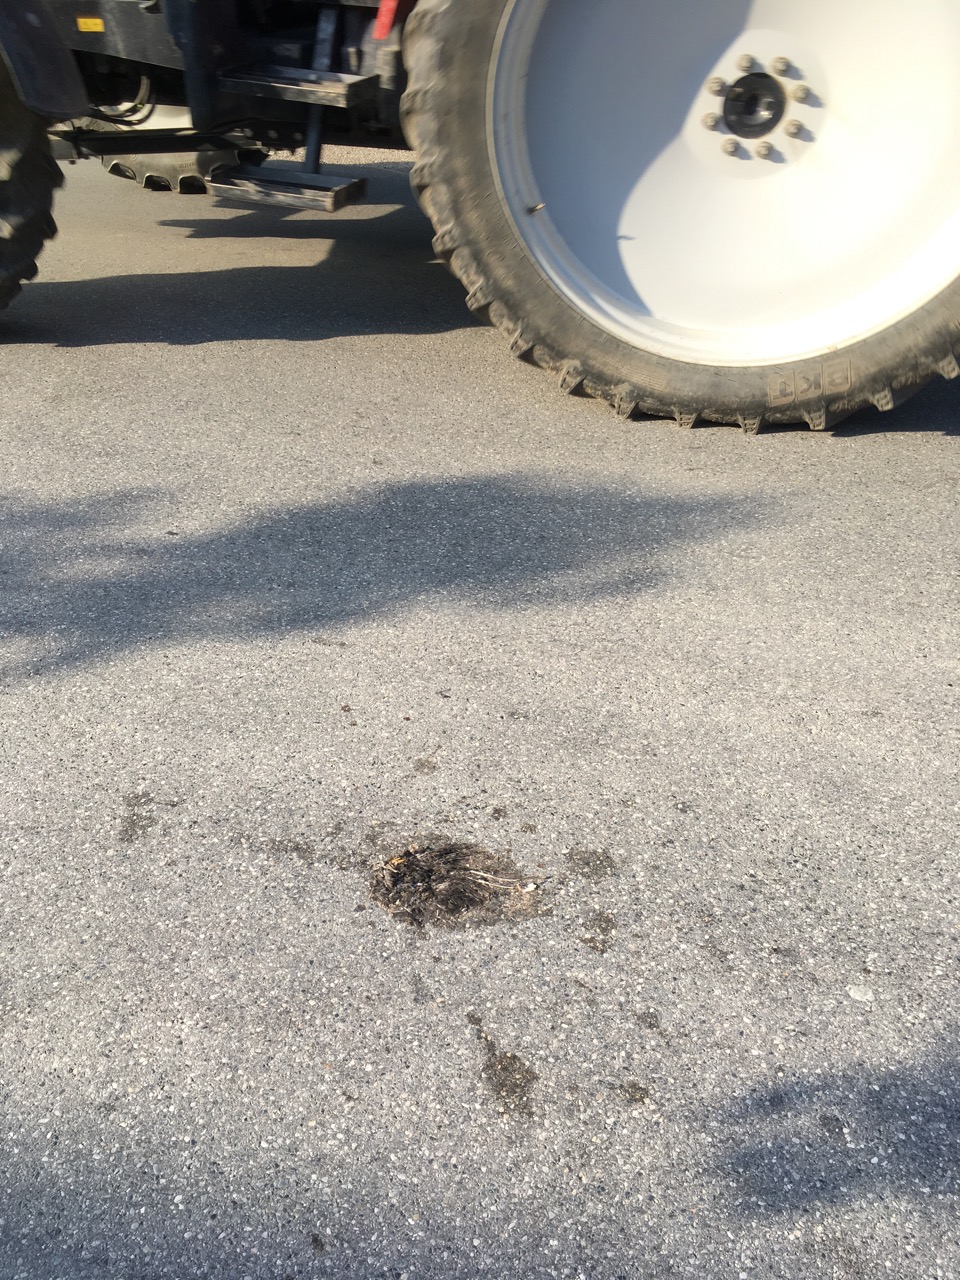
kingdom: Animalia
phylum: Chordata
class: Aves
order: Passeriformes
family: Turdidae
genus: Turdus
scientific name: Turdus merula
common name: Common blackbird
